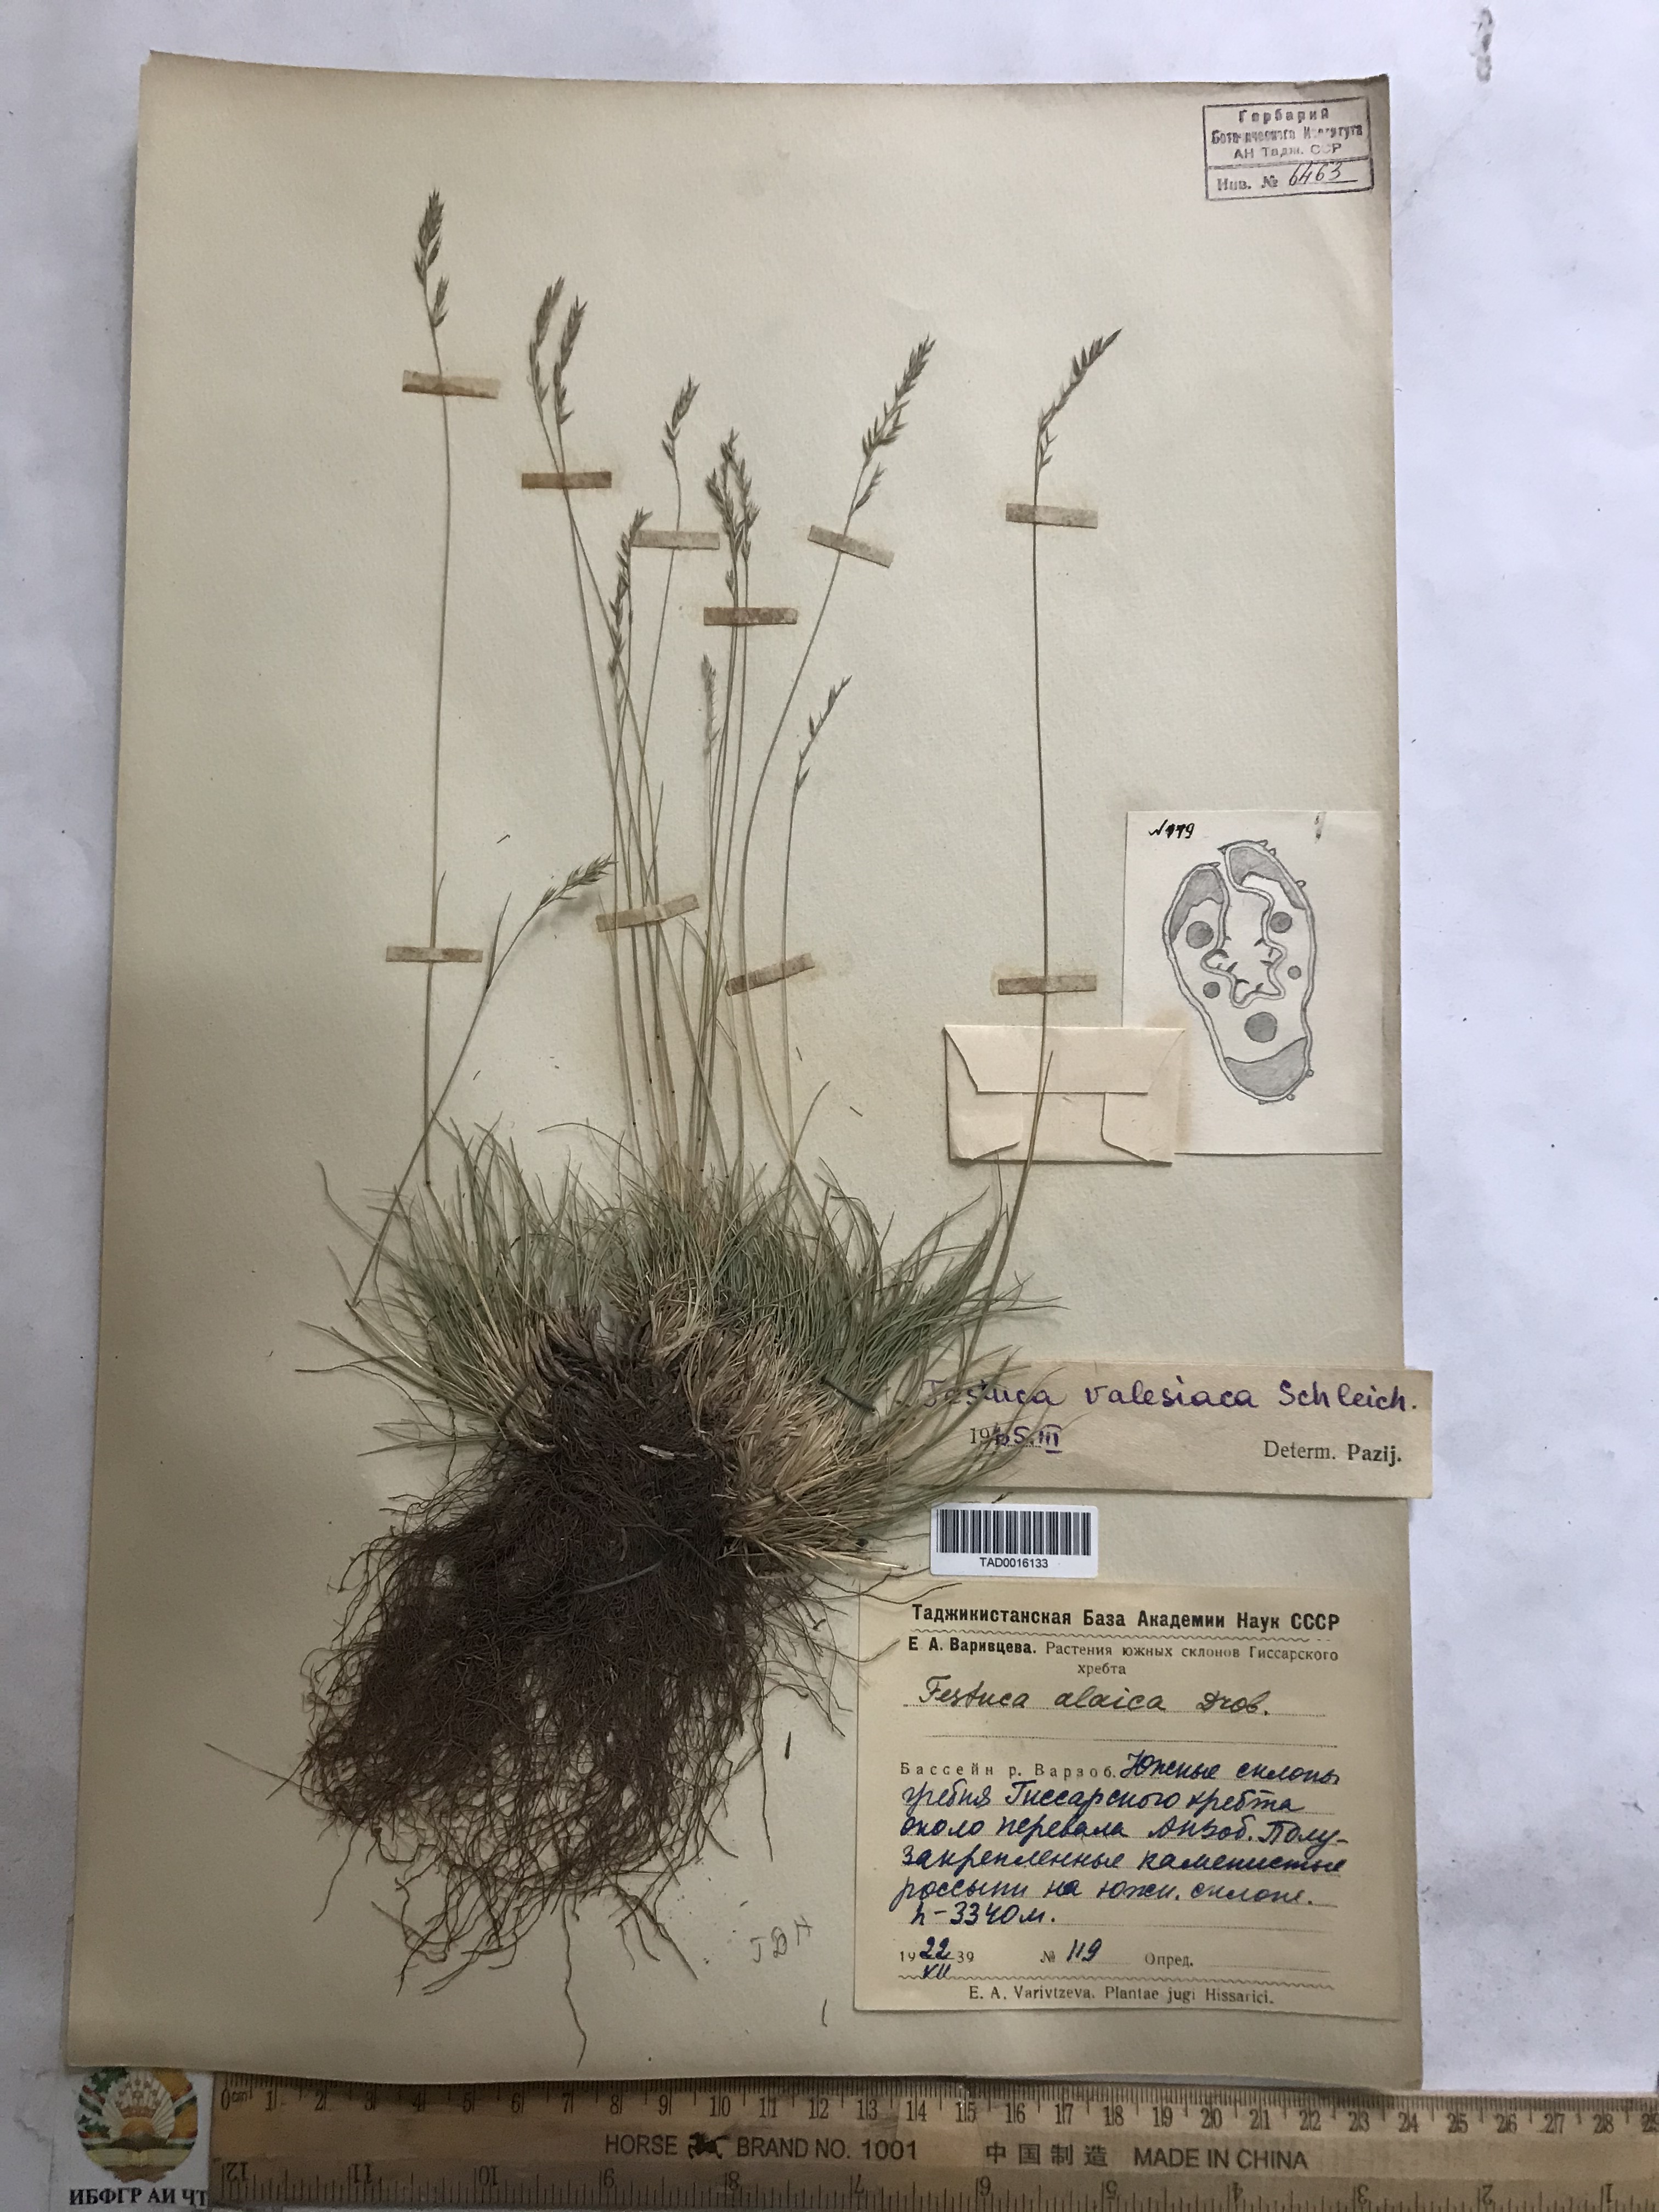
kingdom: Plantae
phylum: Tracheophyta
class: Liliopsida
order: Poales
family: Poaceae
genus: Festuca
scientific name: Festuca valesiaca
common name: Volga fescue
